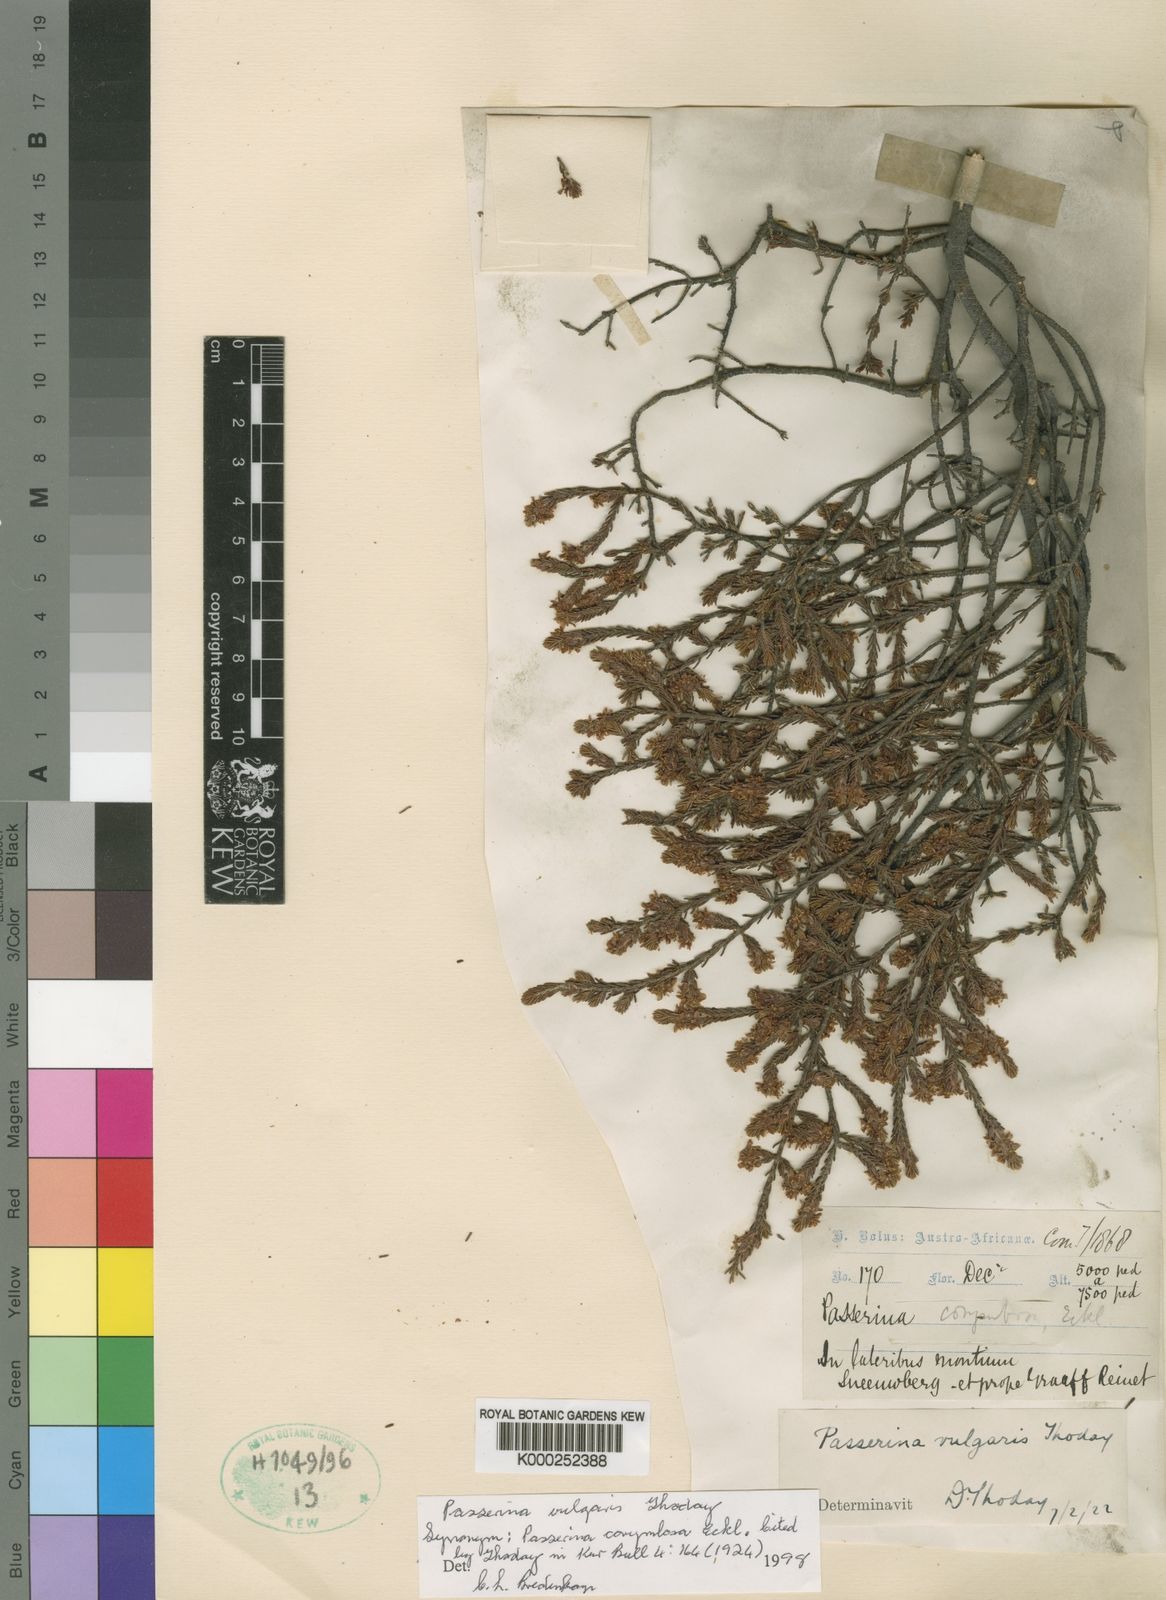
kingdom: Plantae
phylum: Tracheophyta
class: Magnoliopsida
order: Malvales
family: Thymelaeaceae
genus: Passerina
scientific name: Passerina corymbosa
